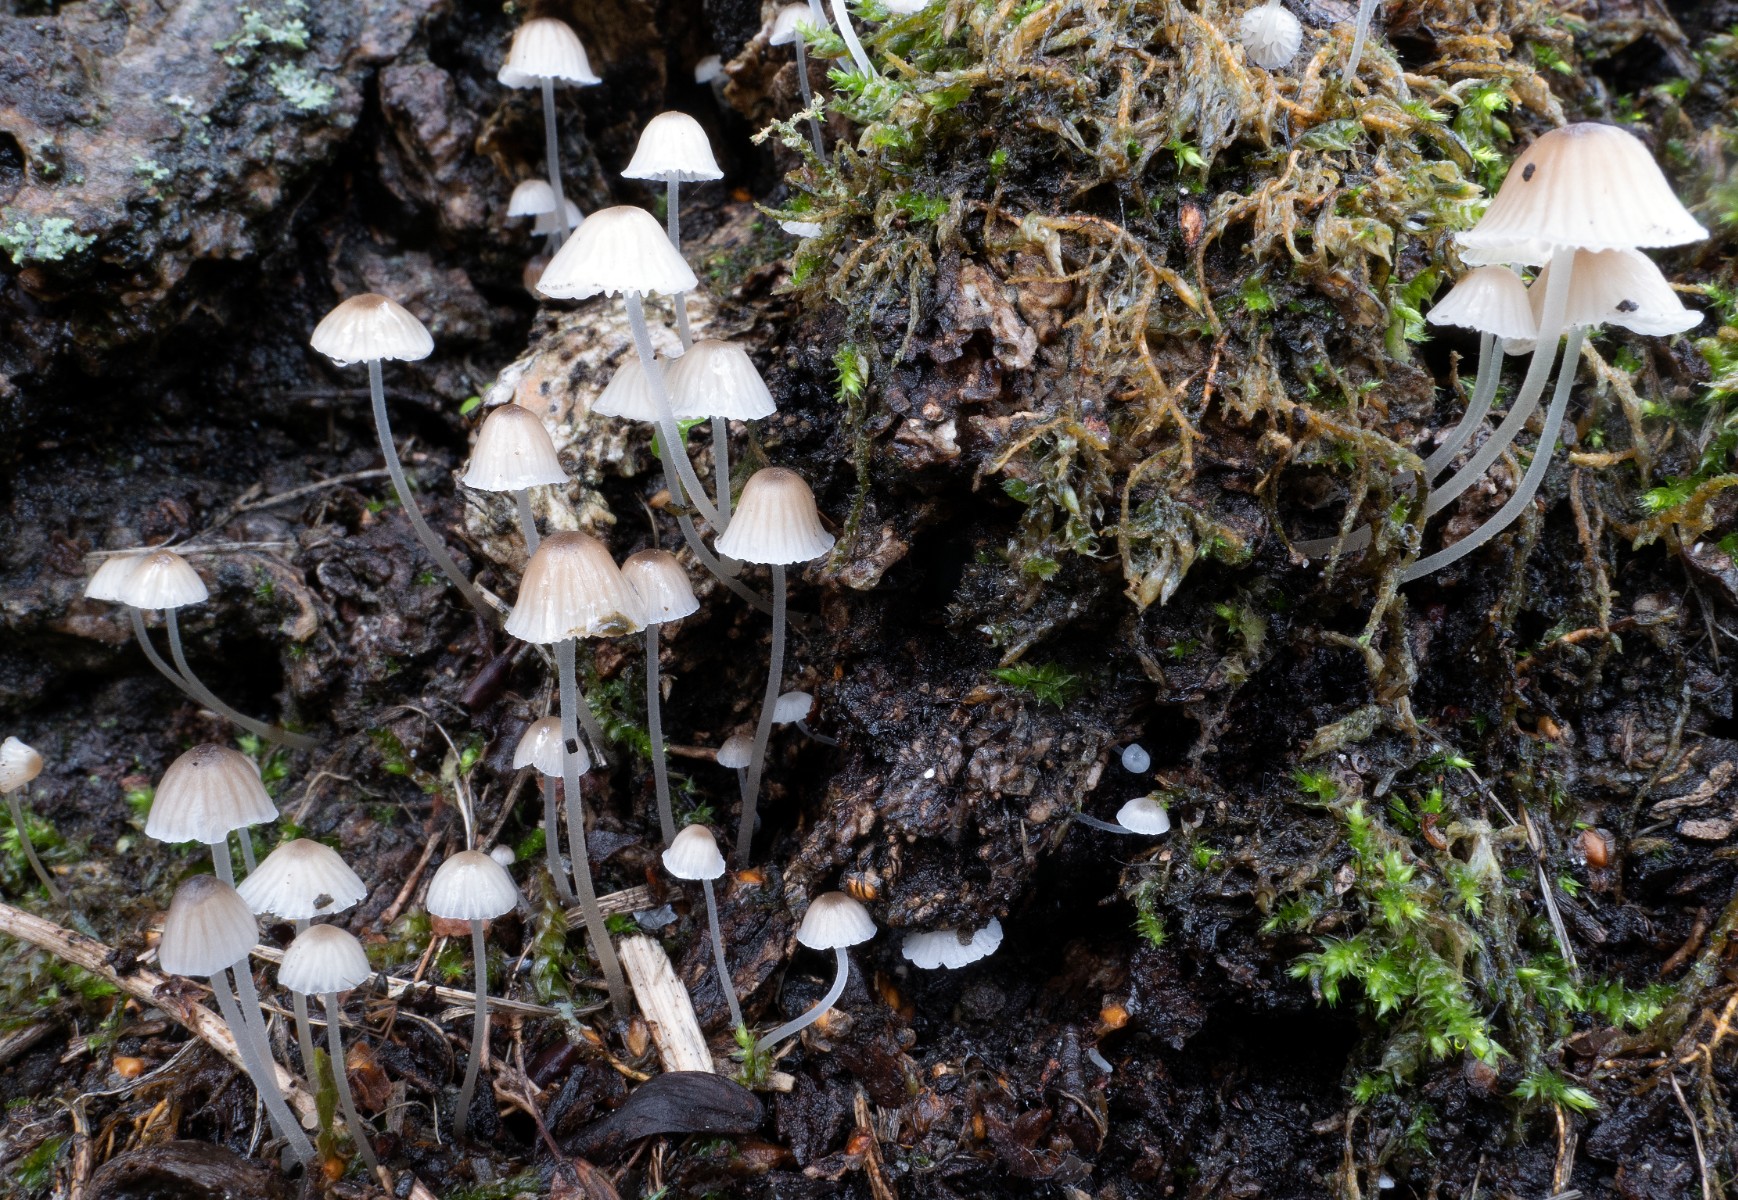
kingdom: Fungi
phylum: Basidiomycota
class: Agaricomycetes
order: Agaricales
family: Porotheleaceae
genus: Phloeomana
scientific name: Phloeomana hiemalis
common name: sen huesvamp
